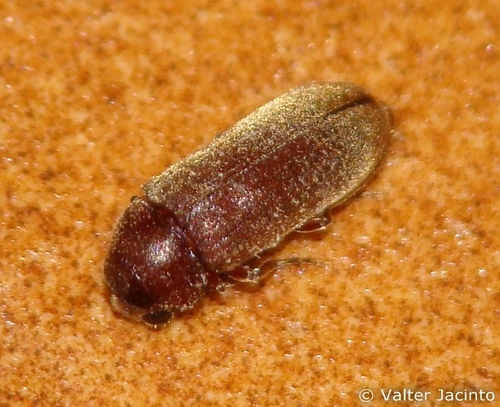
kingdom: Animalia
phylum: Arthropoda
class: Insecta
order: Coleoptera
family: Anobiidae
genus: Oligomerus
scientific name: Oligomerus ptilinoides
